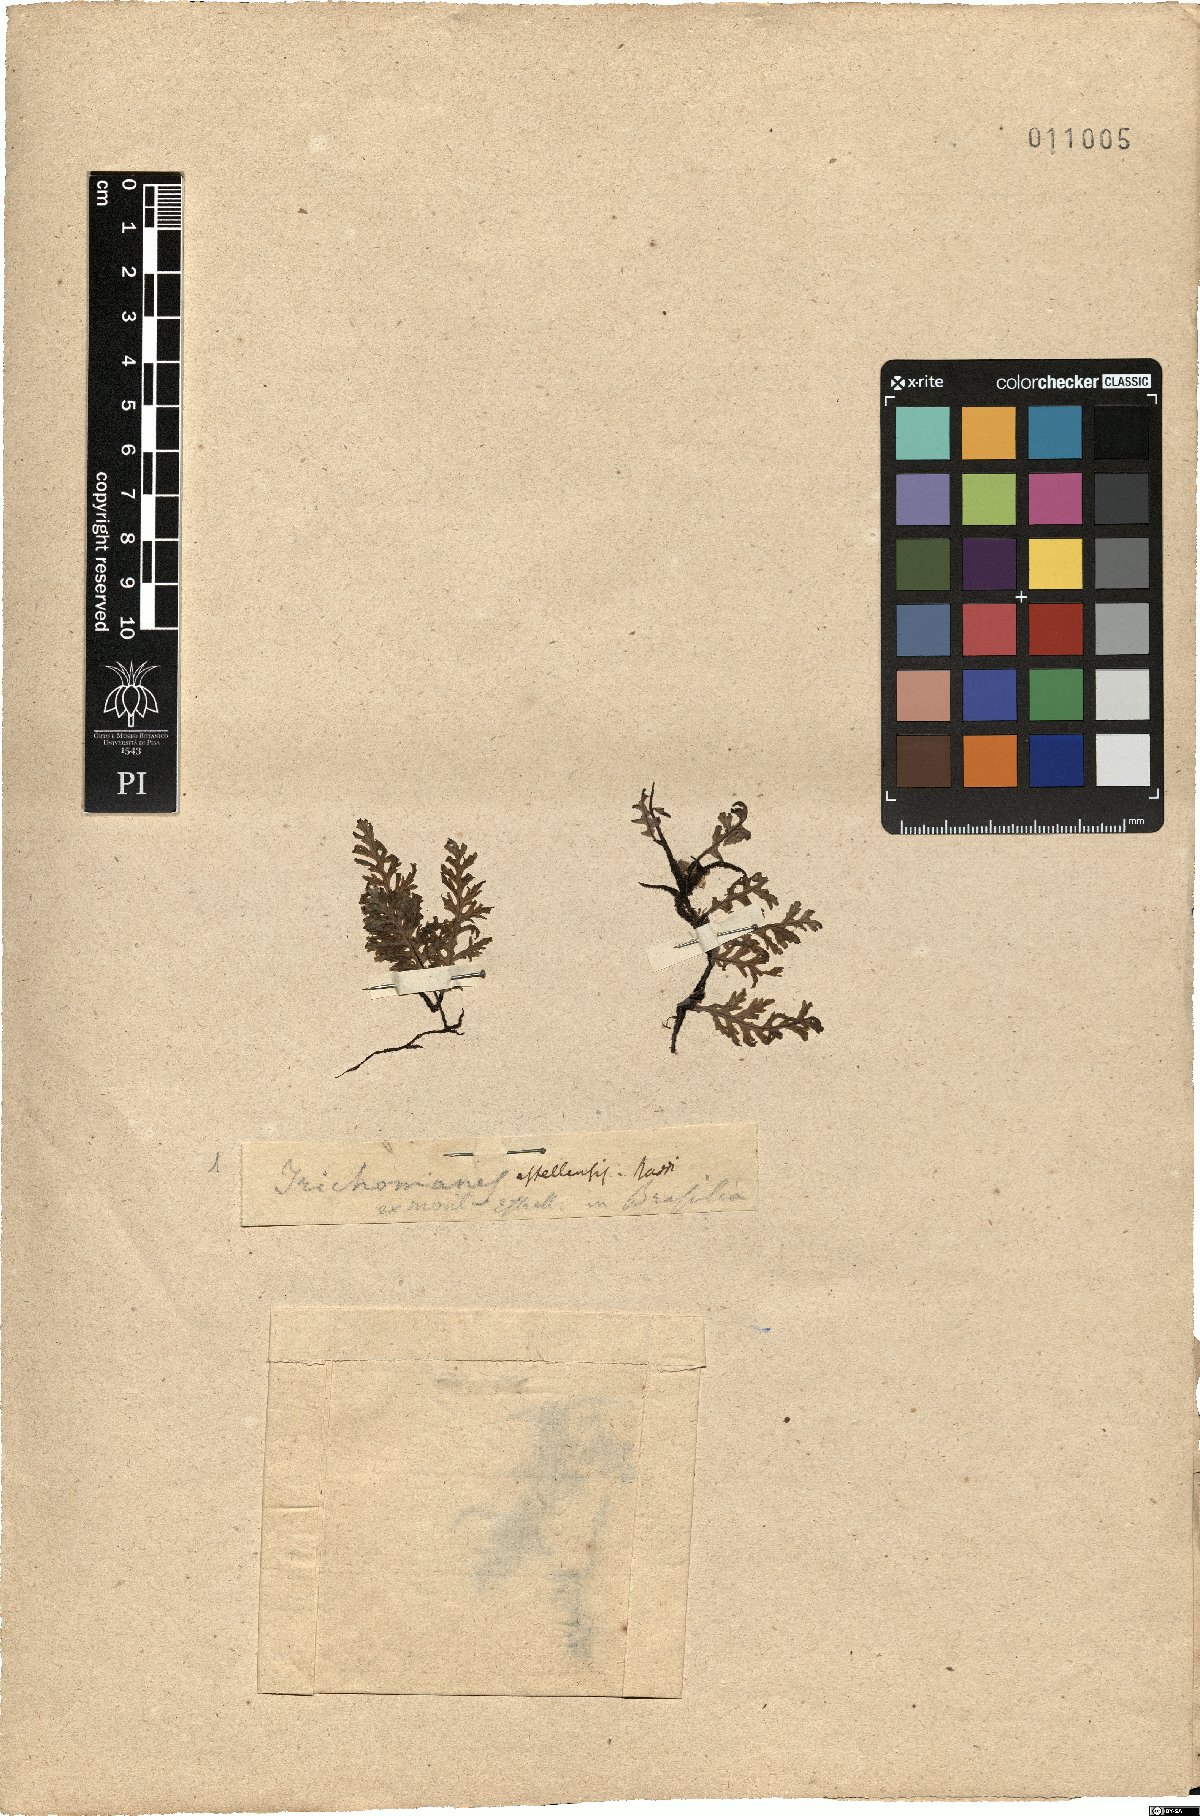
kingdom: Plantae
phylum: Tracheophyta
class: Polypodiopsida
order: Hymenophyllales
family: Hymenophyllaceae
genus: Didymoglossum
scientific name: Didymoglossum kraussii
